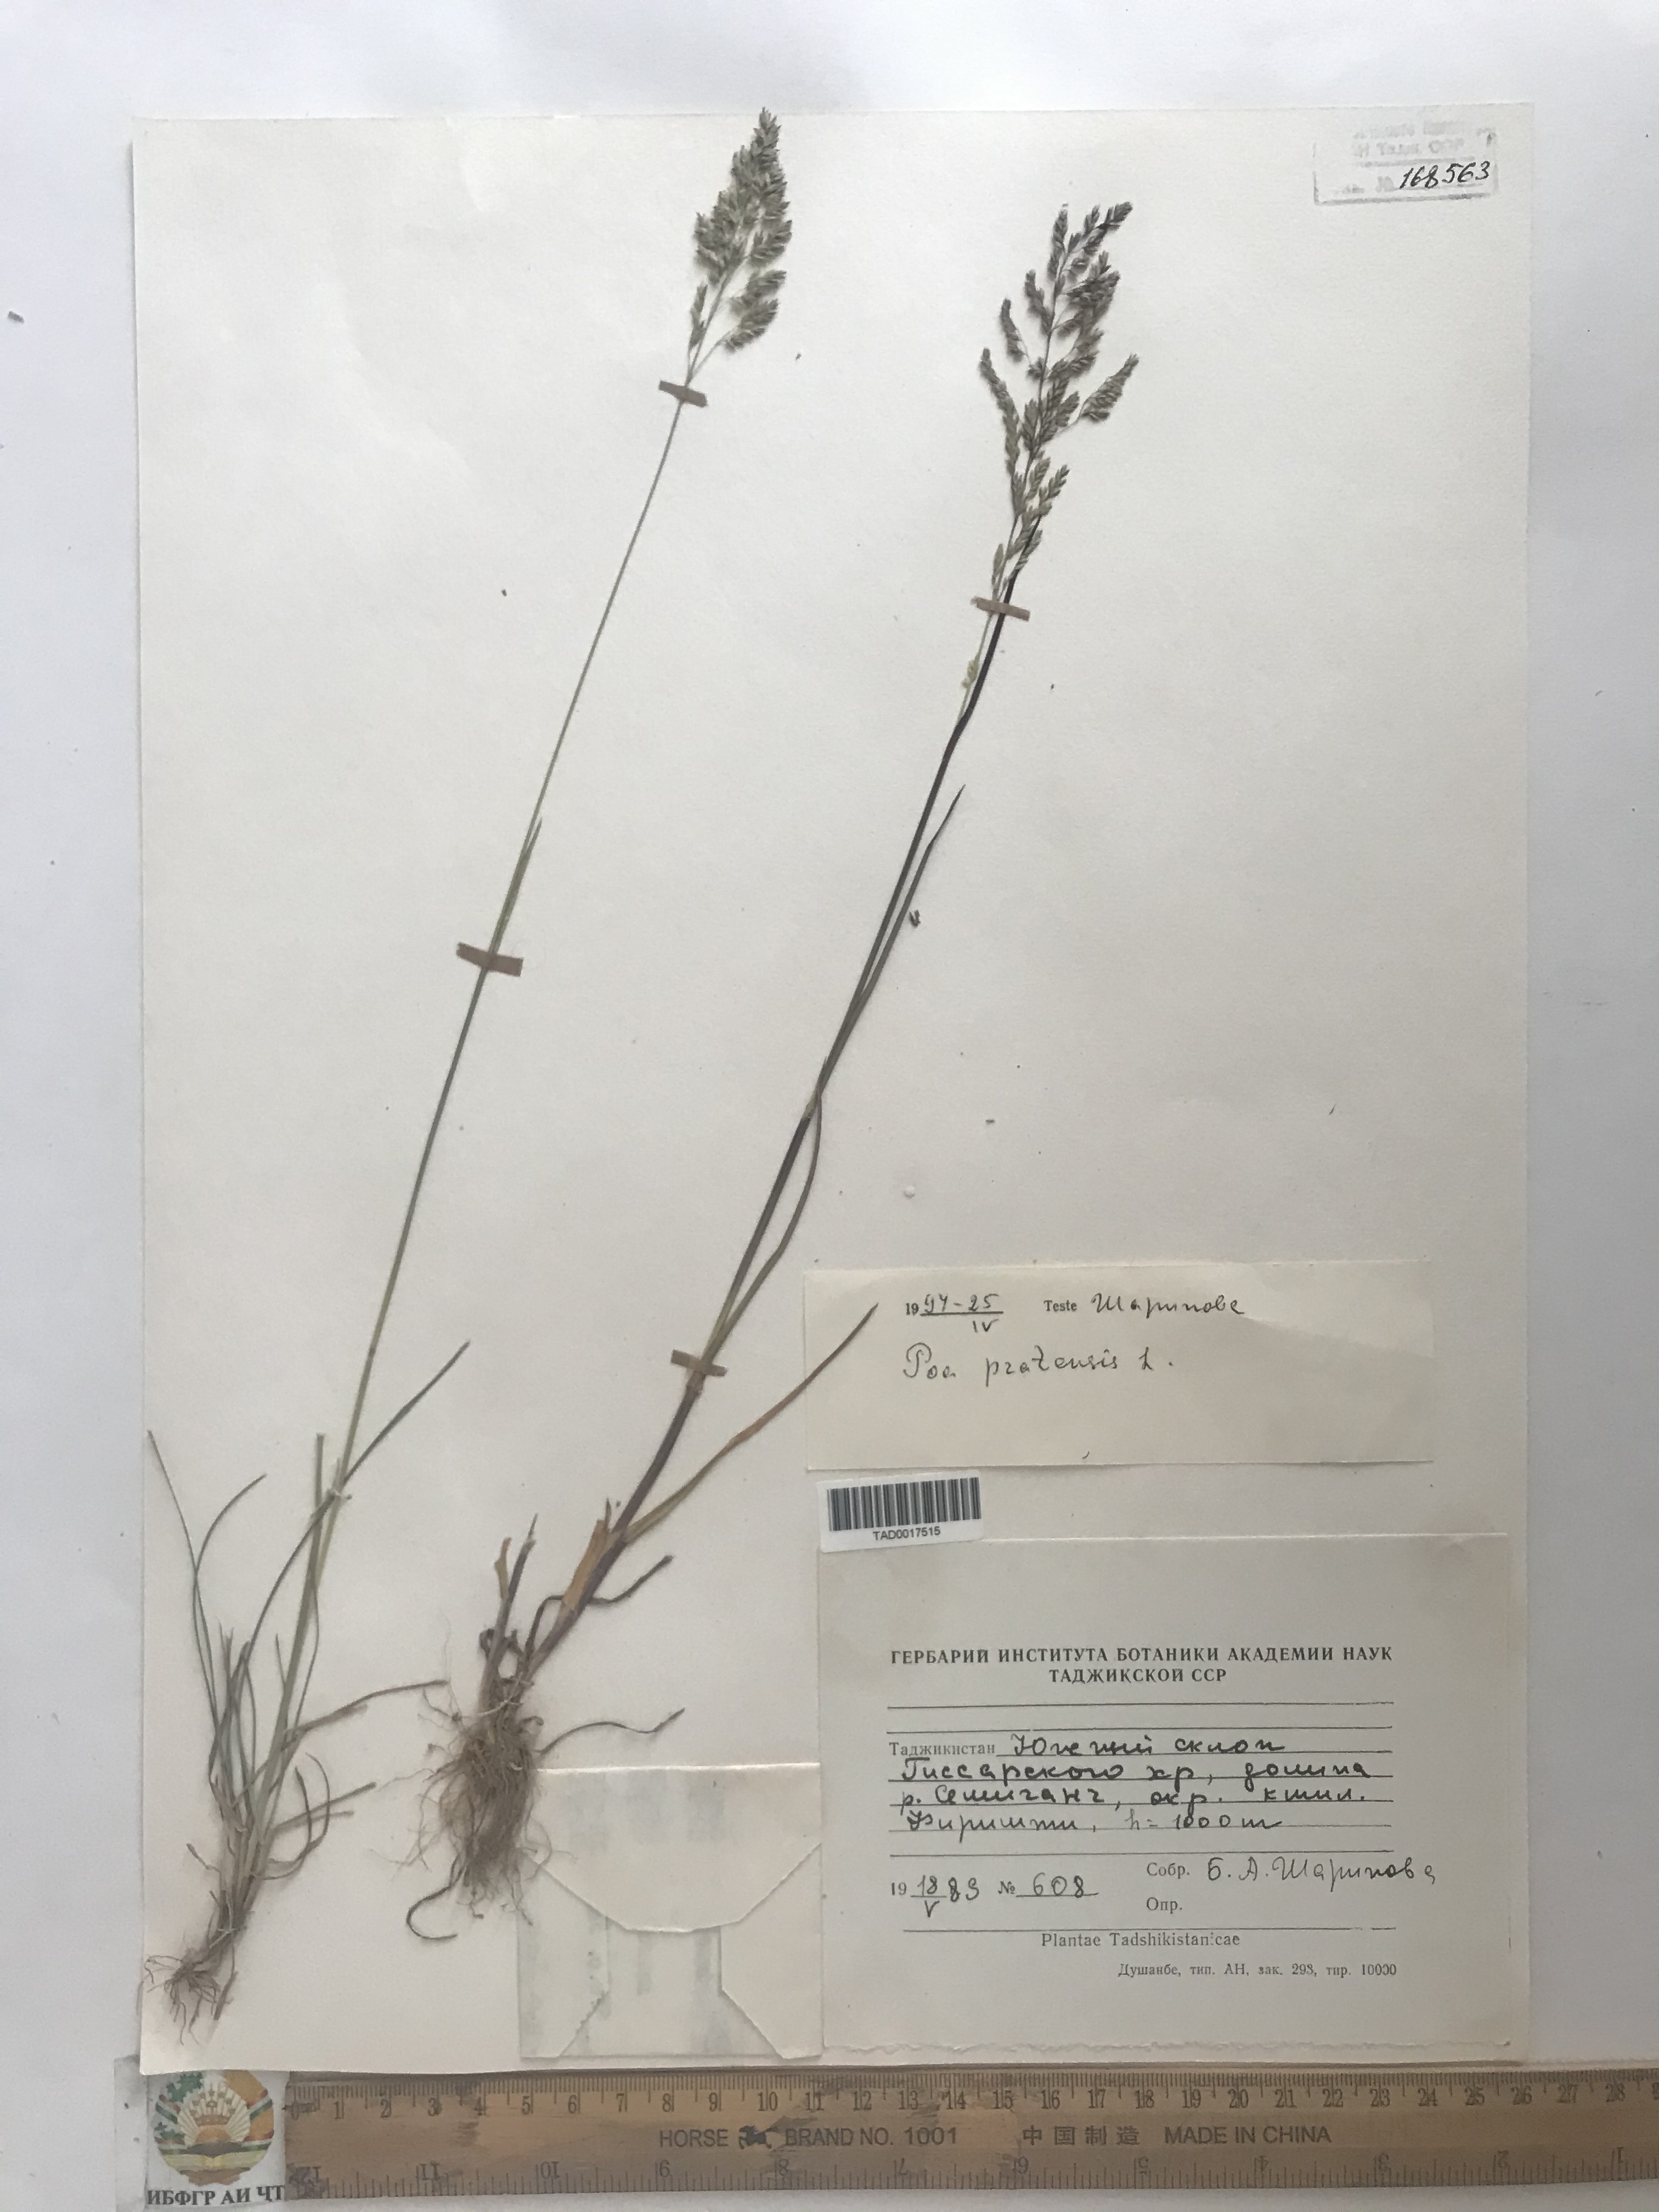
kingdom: Plantae
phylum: Tracheophyta
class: Liliopsida
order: Poales
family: Poaceae
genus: Poa
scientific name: Poa pratensis
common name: Kentucky bluegrass
